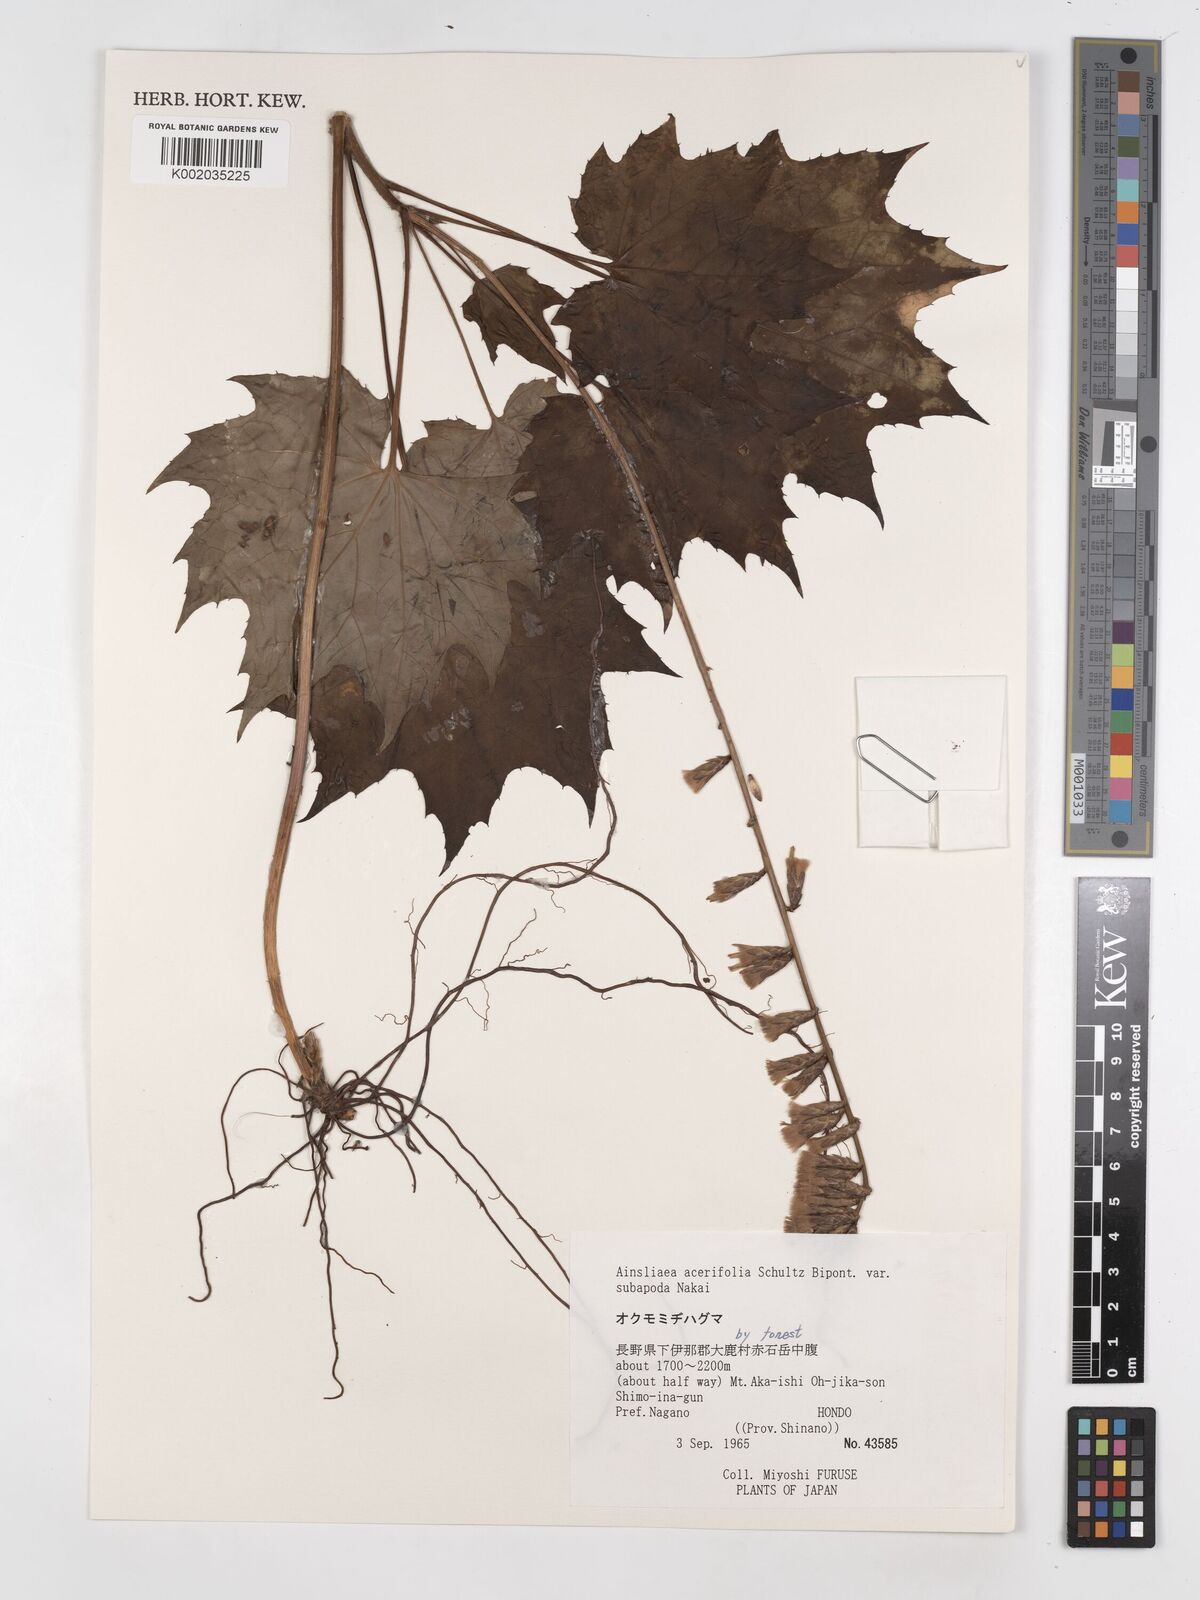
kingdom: Plantae
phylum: Tracheophyta
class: Magnoliopsida
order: Asterales
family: Asteraceae
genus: Ainsliaea
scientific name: Ainsliaea acerifolia
